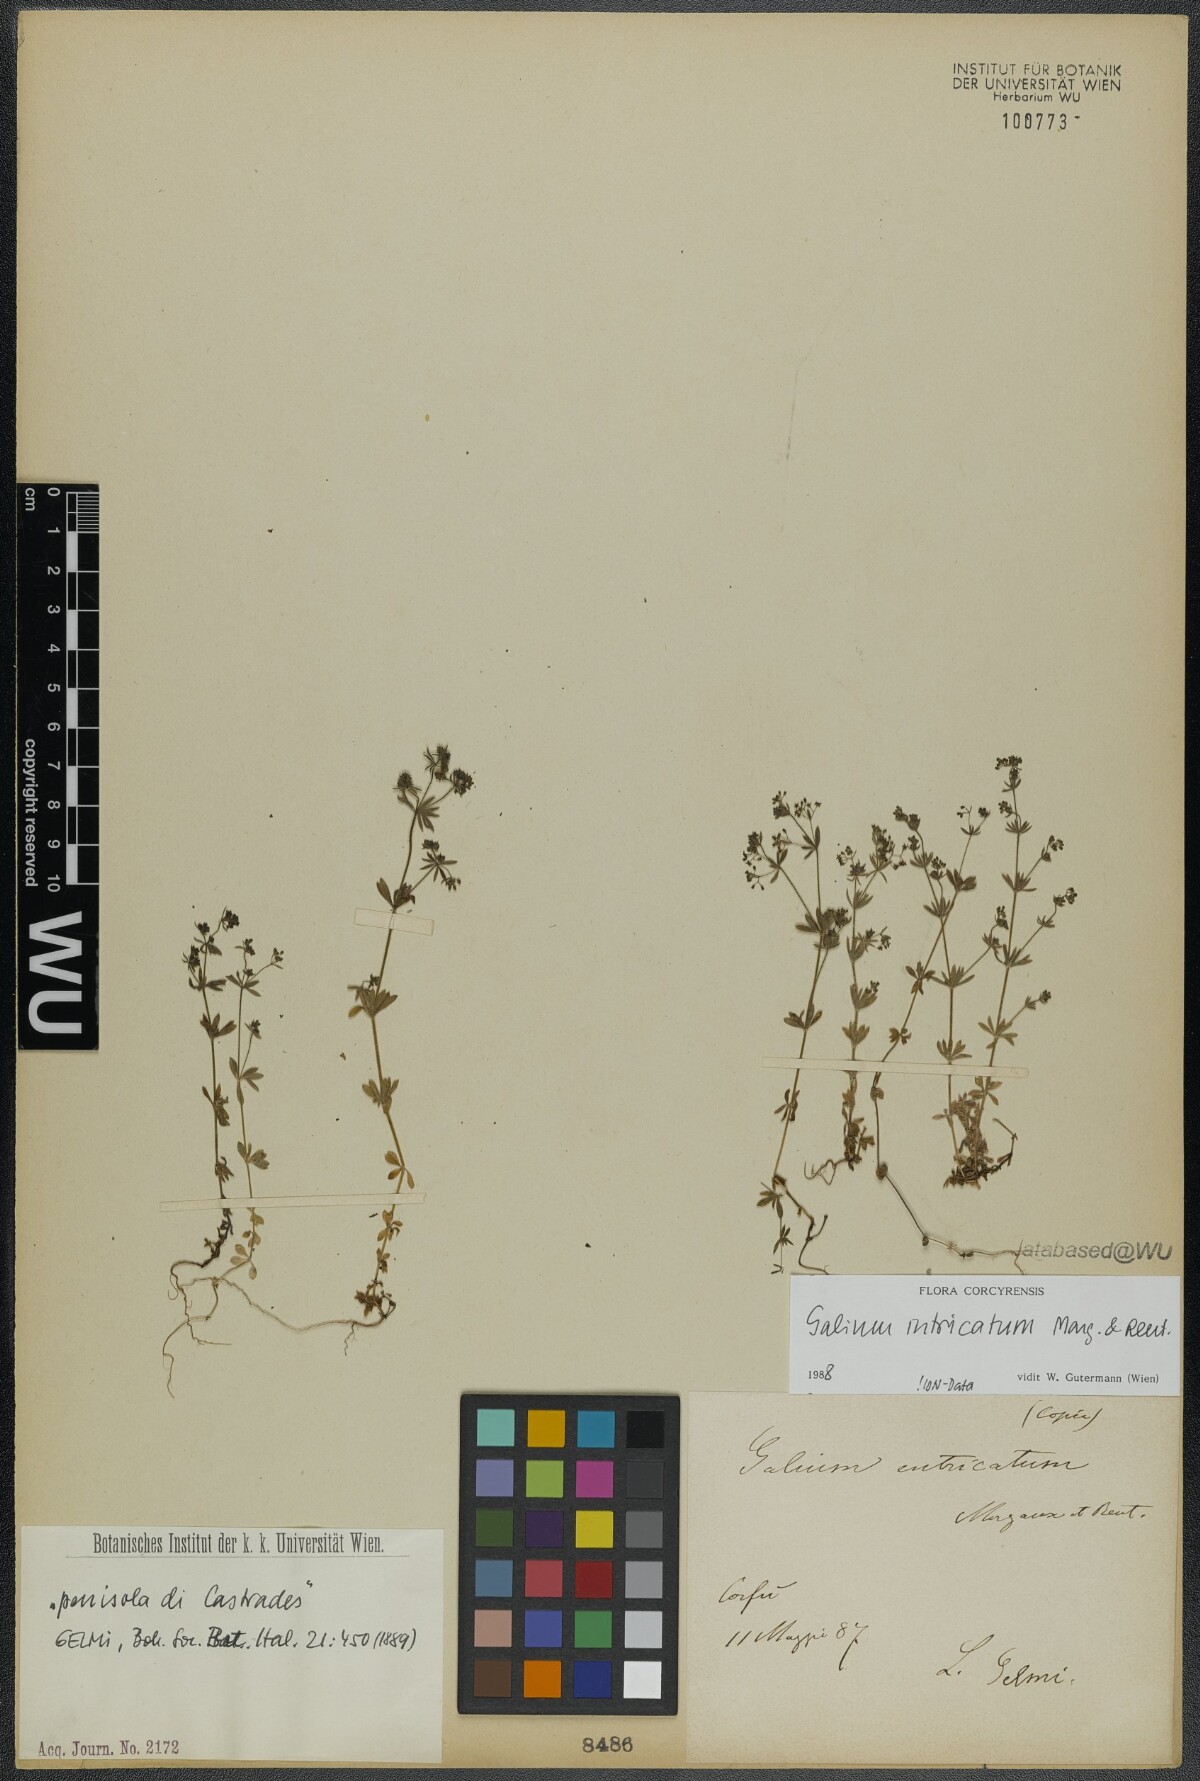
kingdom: Plantae
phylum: Tracheophyta
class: Magnoliopsida
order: Gentianales
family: Rubiaceae
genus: Galium
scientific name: Galium intricatum
